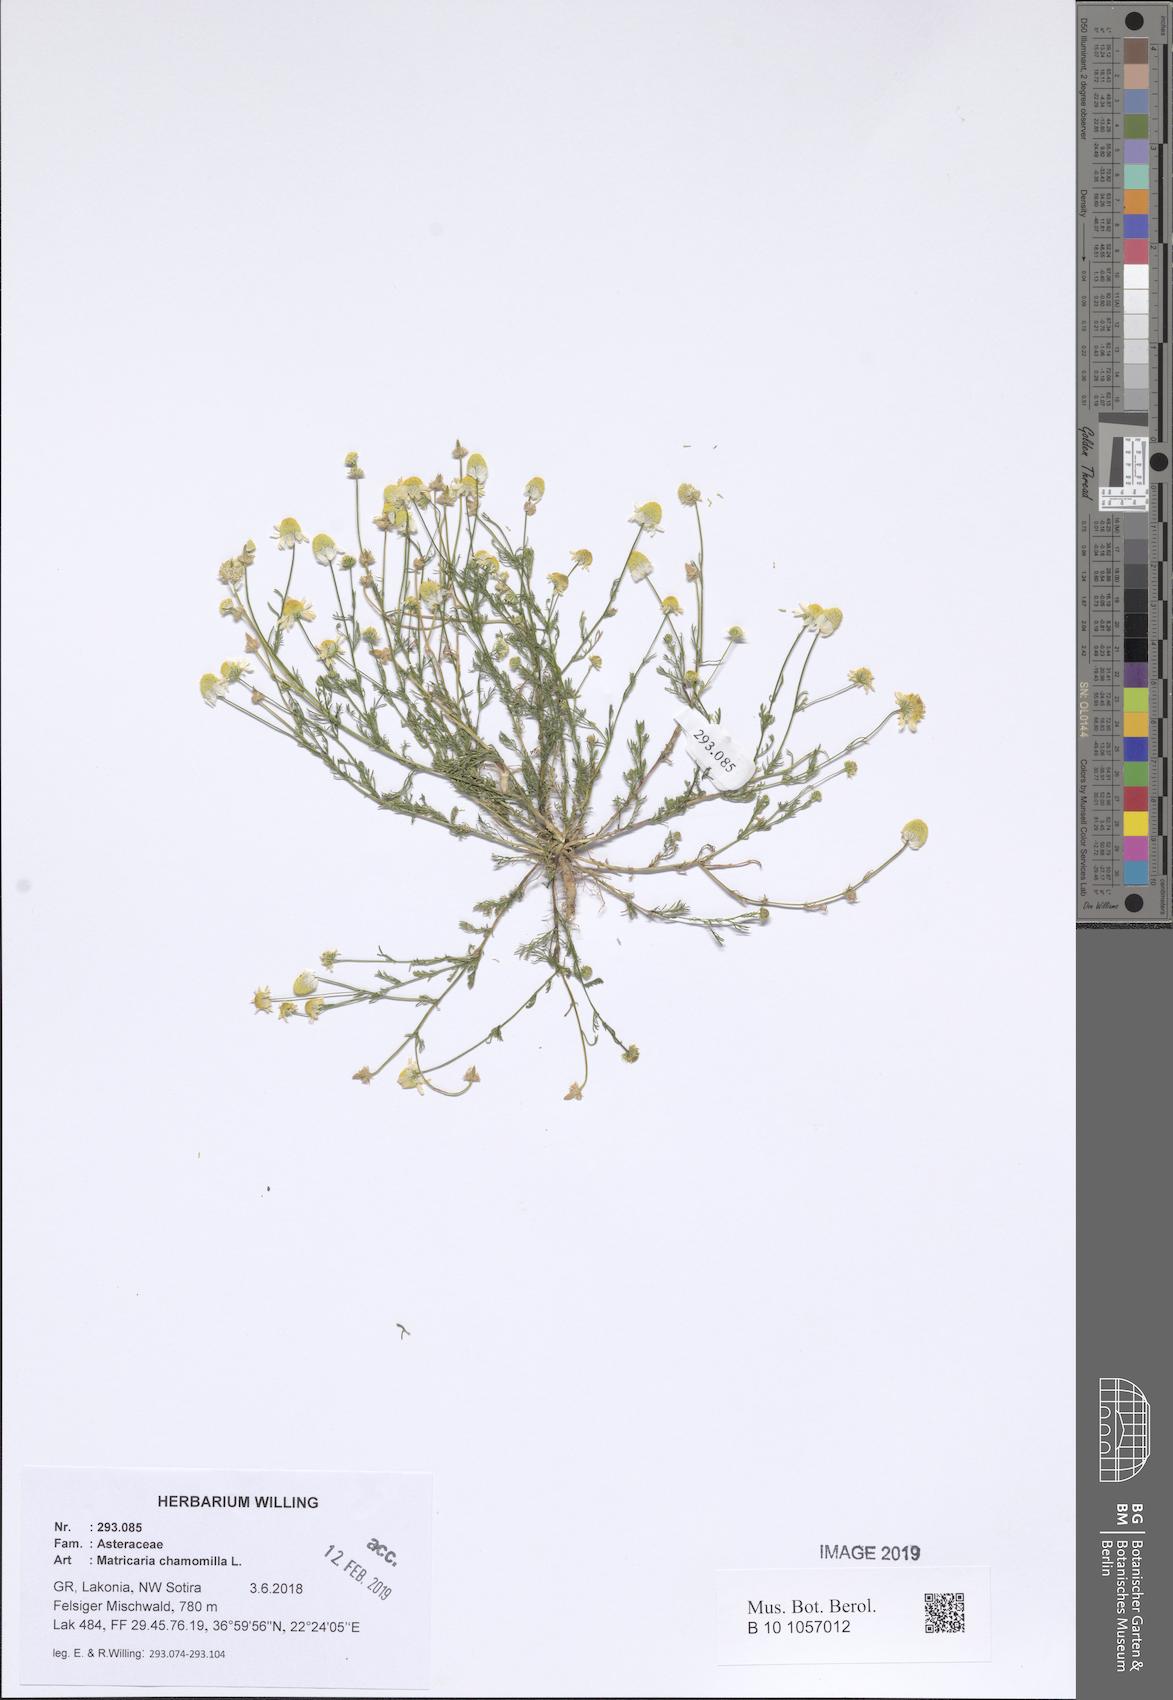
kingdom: Plantae
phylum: Tracheophyta
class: Magnoliopsida
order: Asterales
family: Asteraceae
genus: Matricaria
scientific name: Matricaria chamomilla
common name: Scented mayweed
